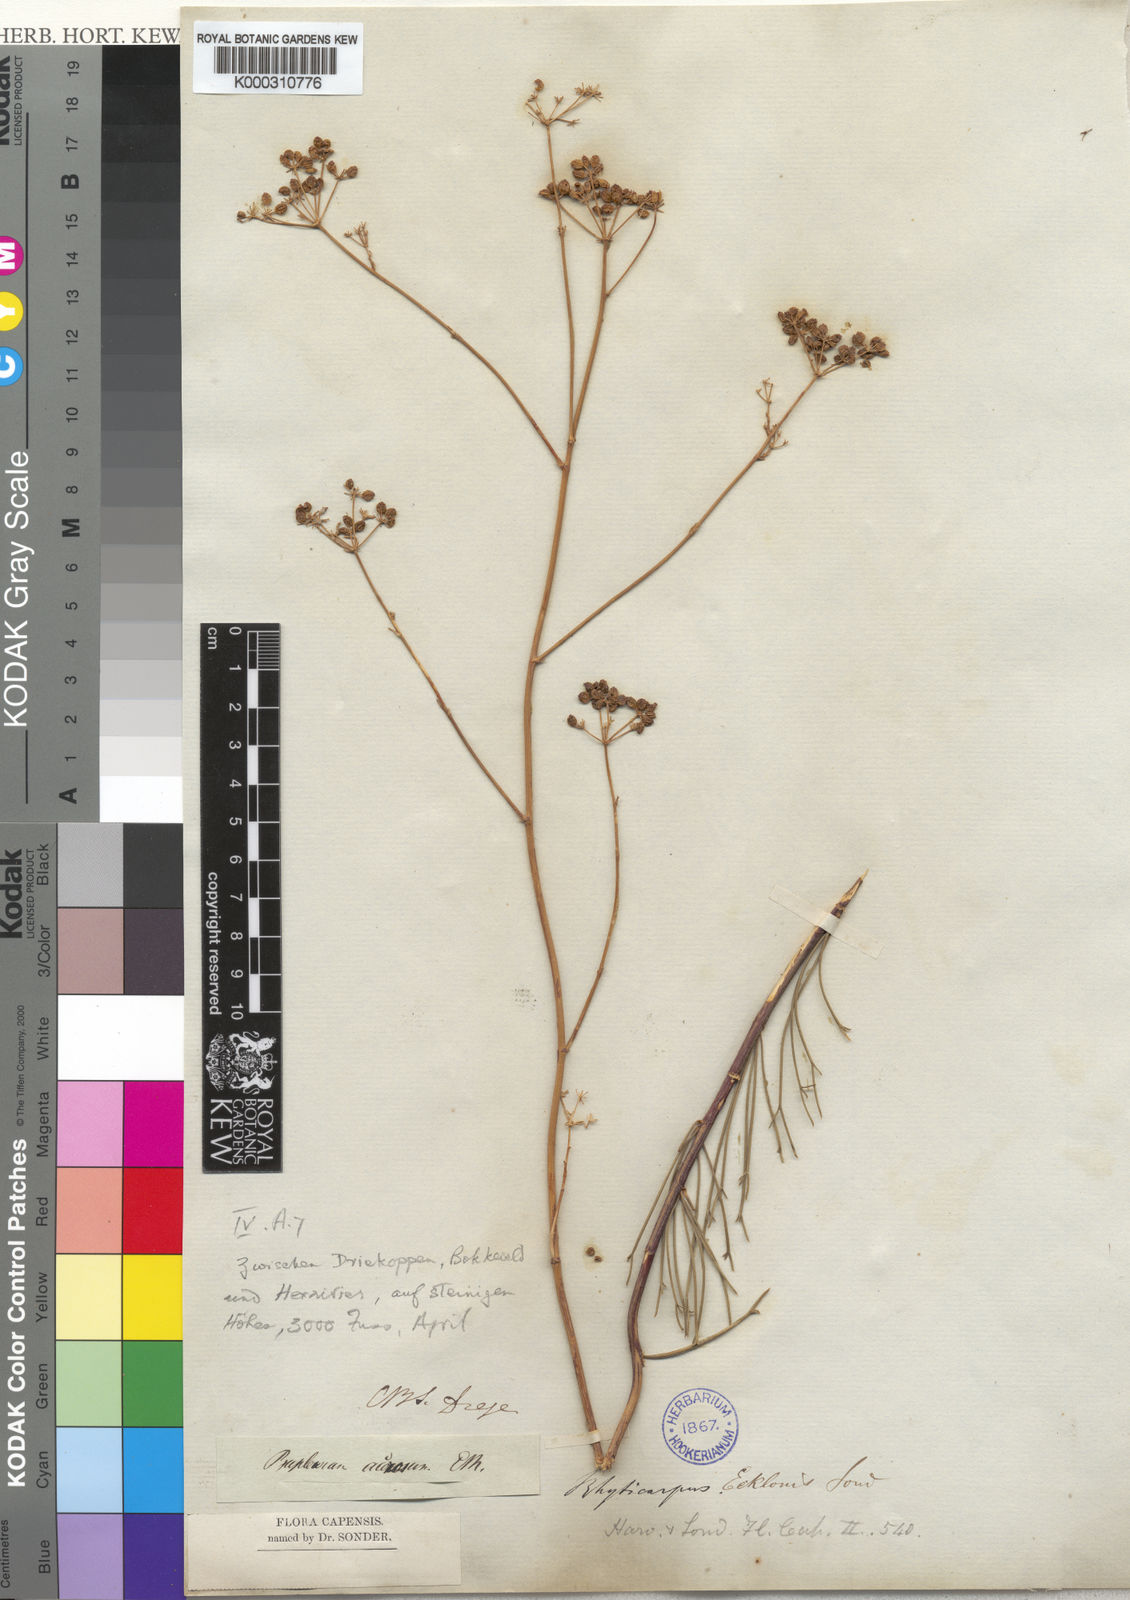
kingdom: Plantae
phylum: Tracheophyta
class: Magnoliopsida
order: Apiales
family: Apiaceae
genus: Anginon
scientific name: Anginon
